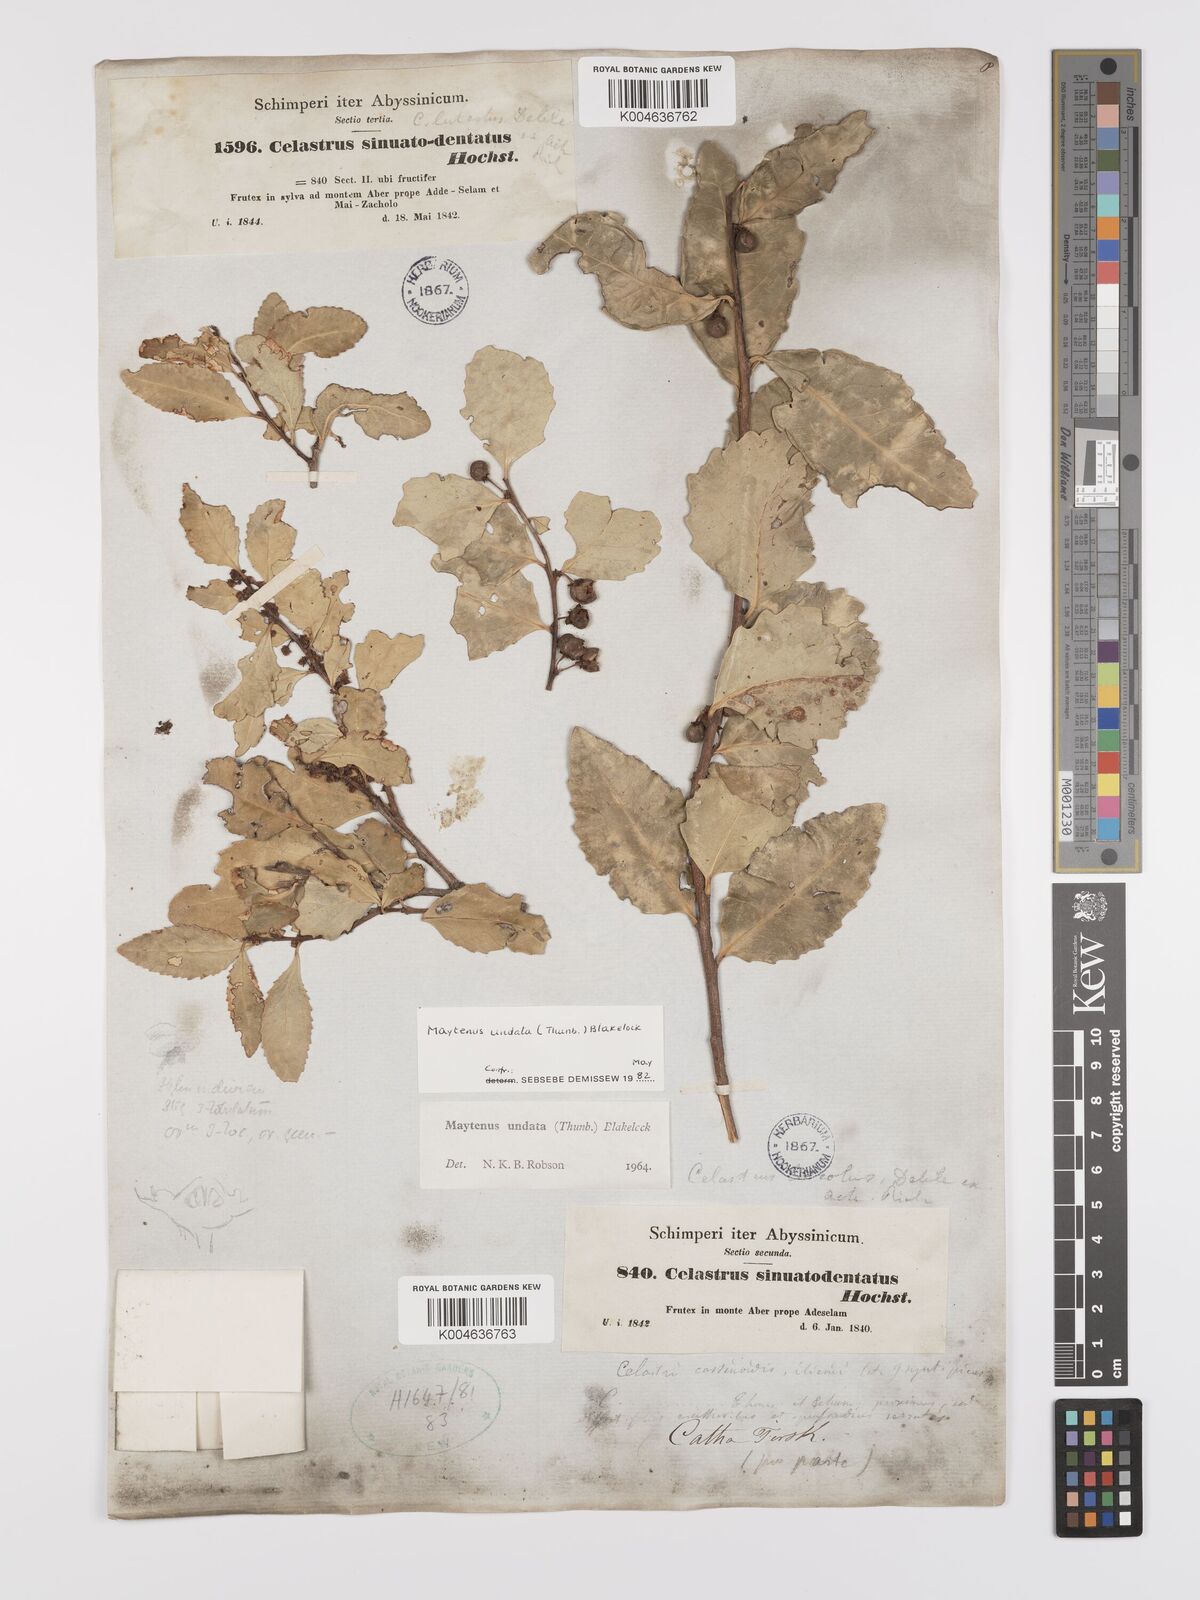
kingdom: Plantae
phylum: Tracheophyta
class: Magnoliopsida
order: Celastrales
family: Celastraceae
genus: Gymnosporia
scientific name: Gymnosporia undata
